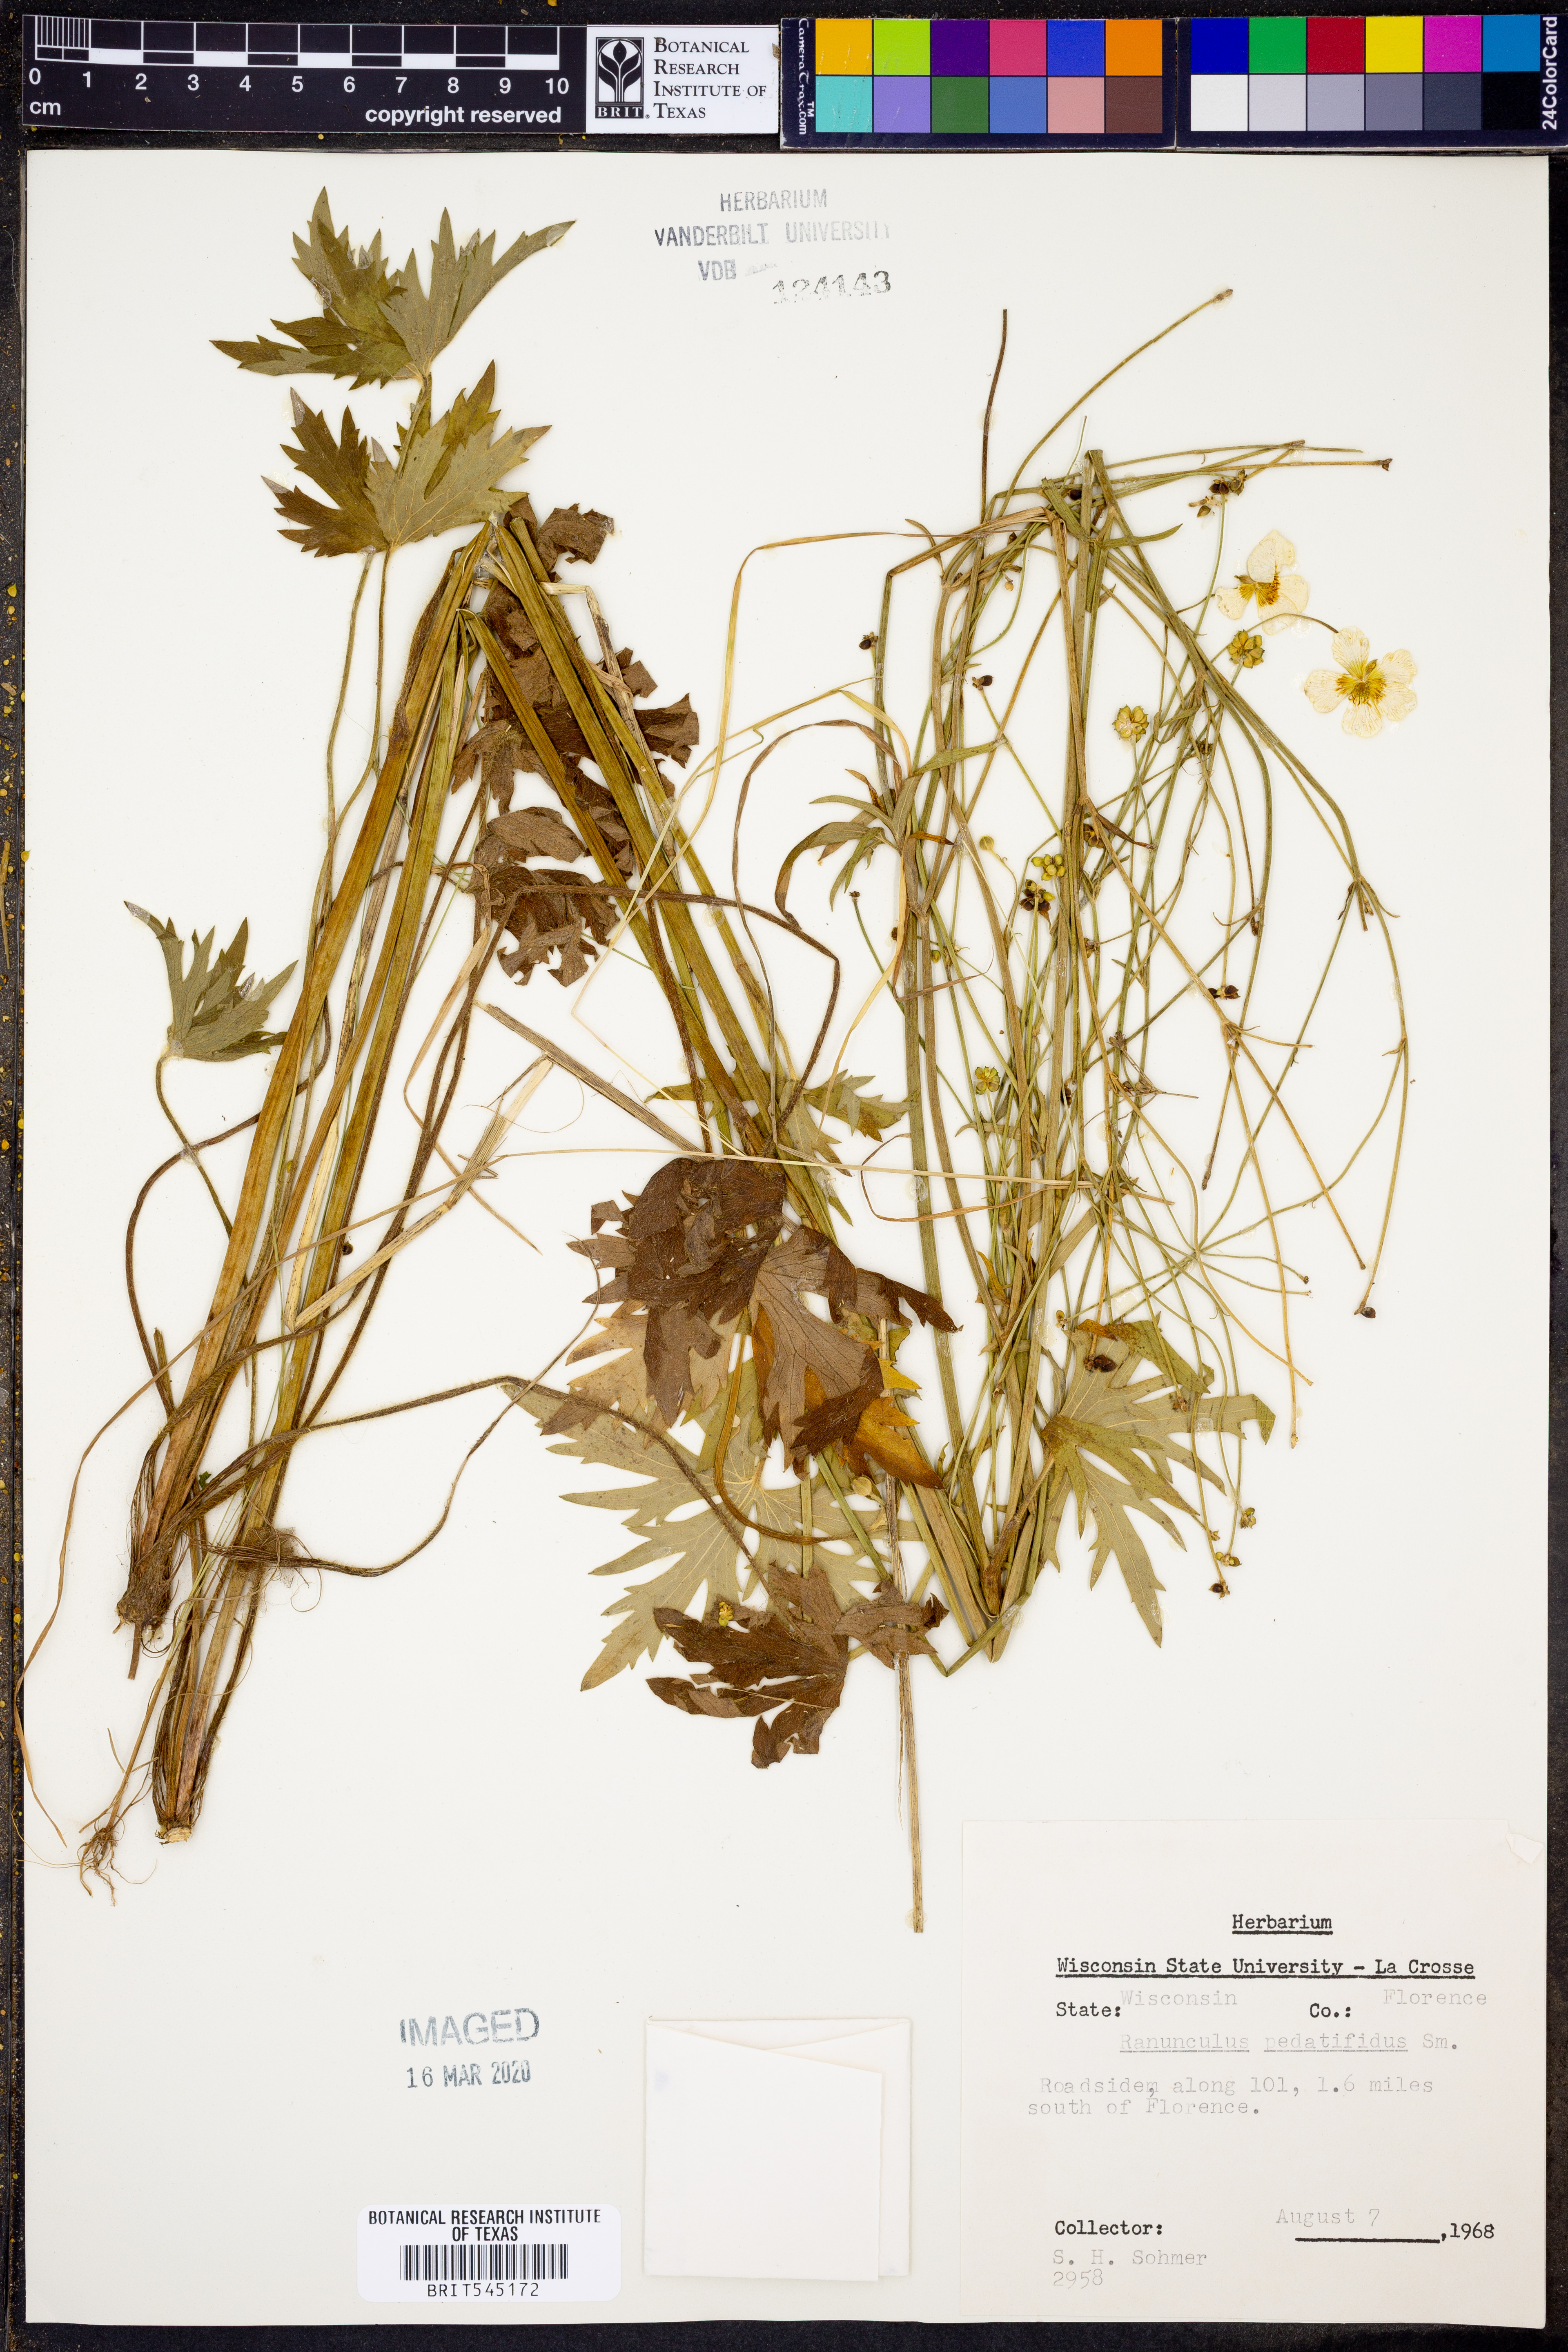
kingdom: Plantae
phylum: Tracheophyta
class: Magnoliopsida
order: Ranunculales
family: Ranunculaceae
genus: Ranunculus
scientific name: Ranunculus pedatifidus
